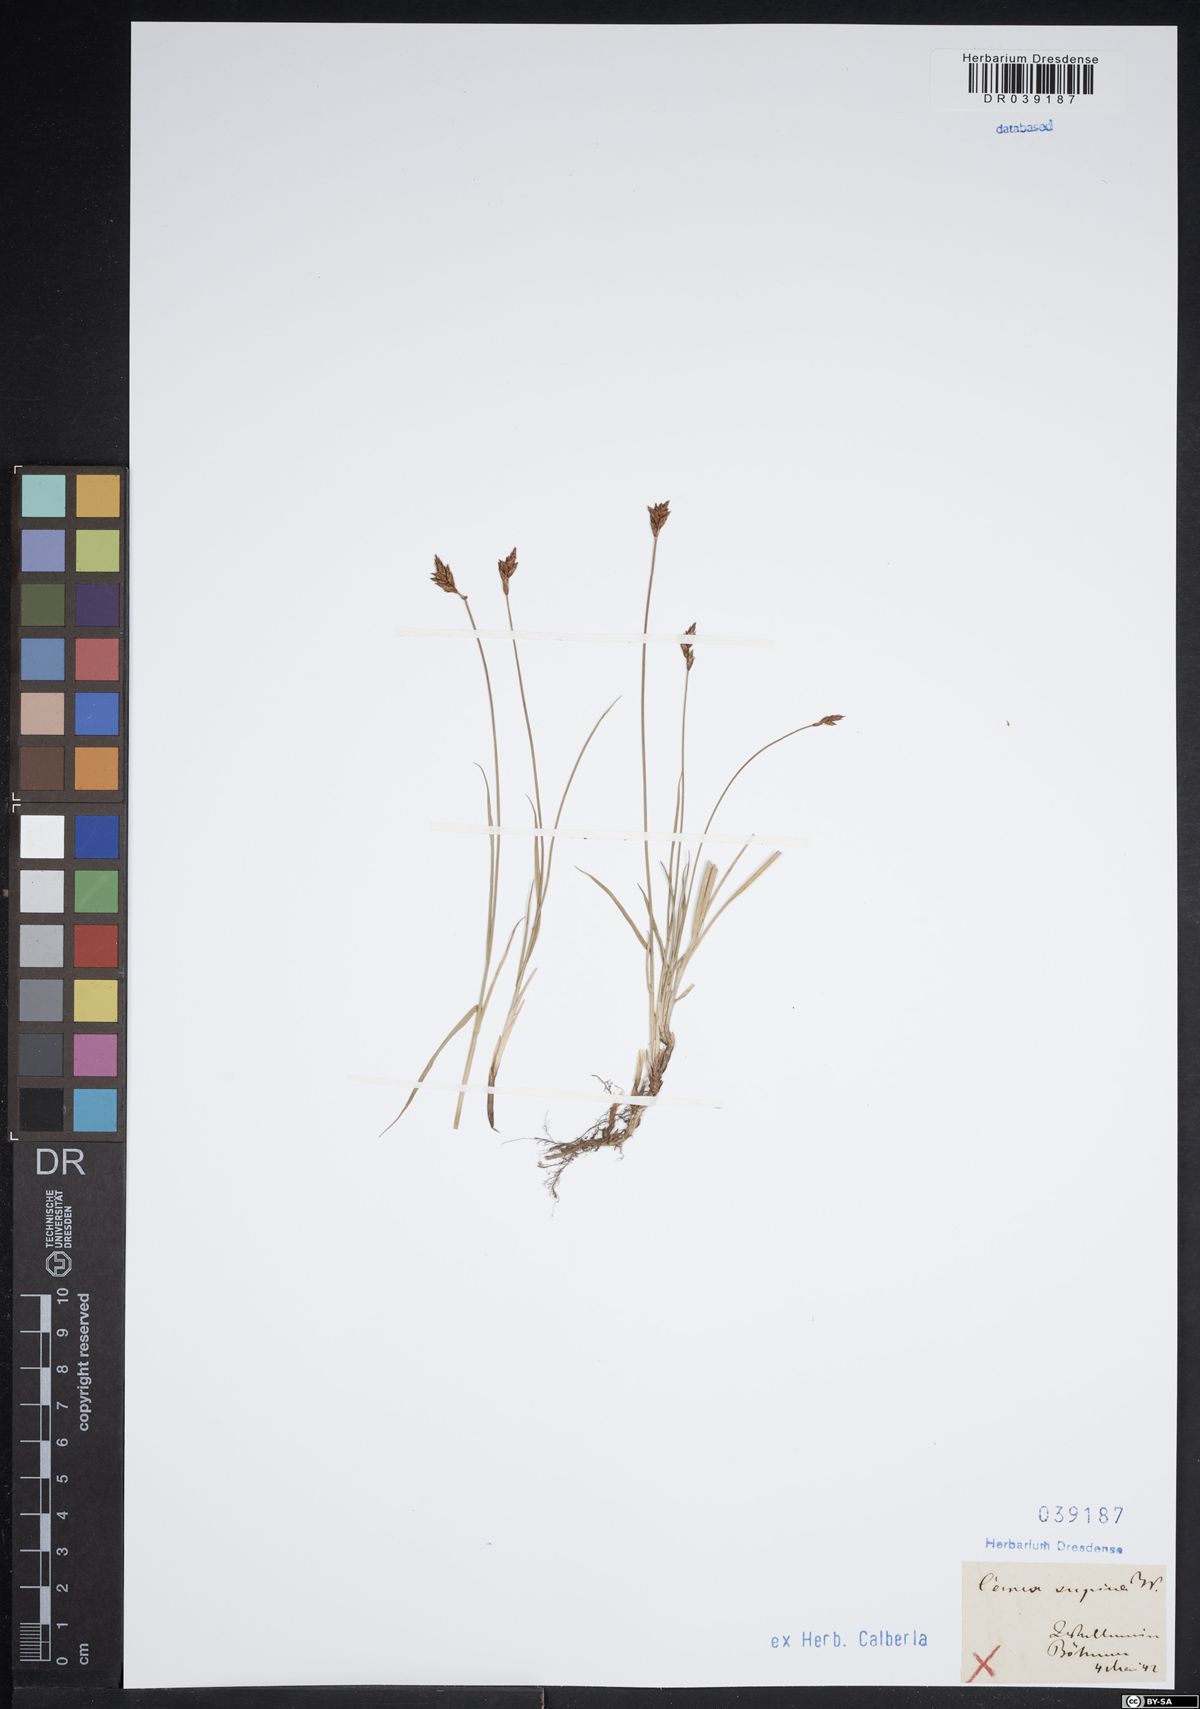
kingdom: Plantae
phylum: Tracheophyta
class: Liliopsida
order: Poales
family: Cyperaceae
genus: Carex
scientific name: Carex supina
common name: Lying-back sedge
